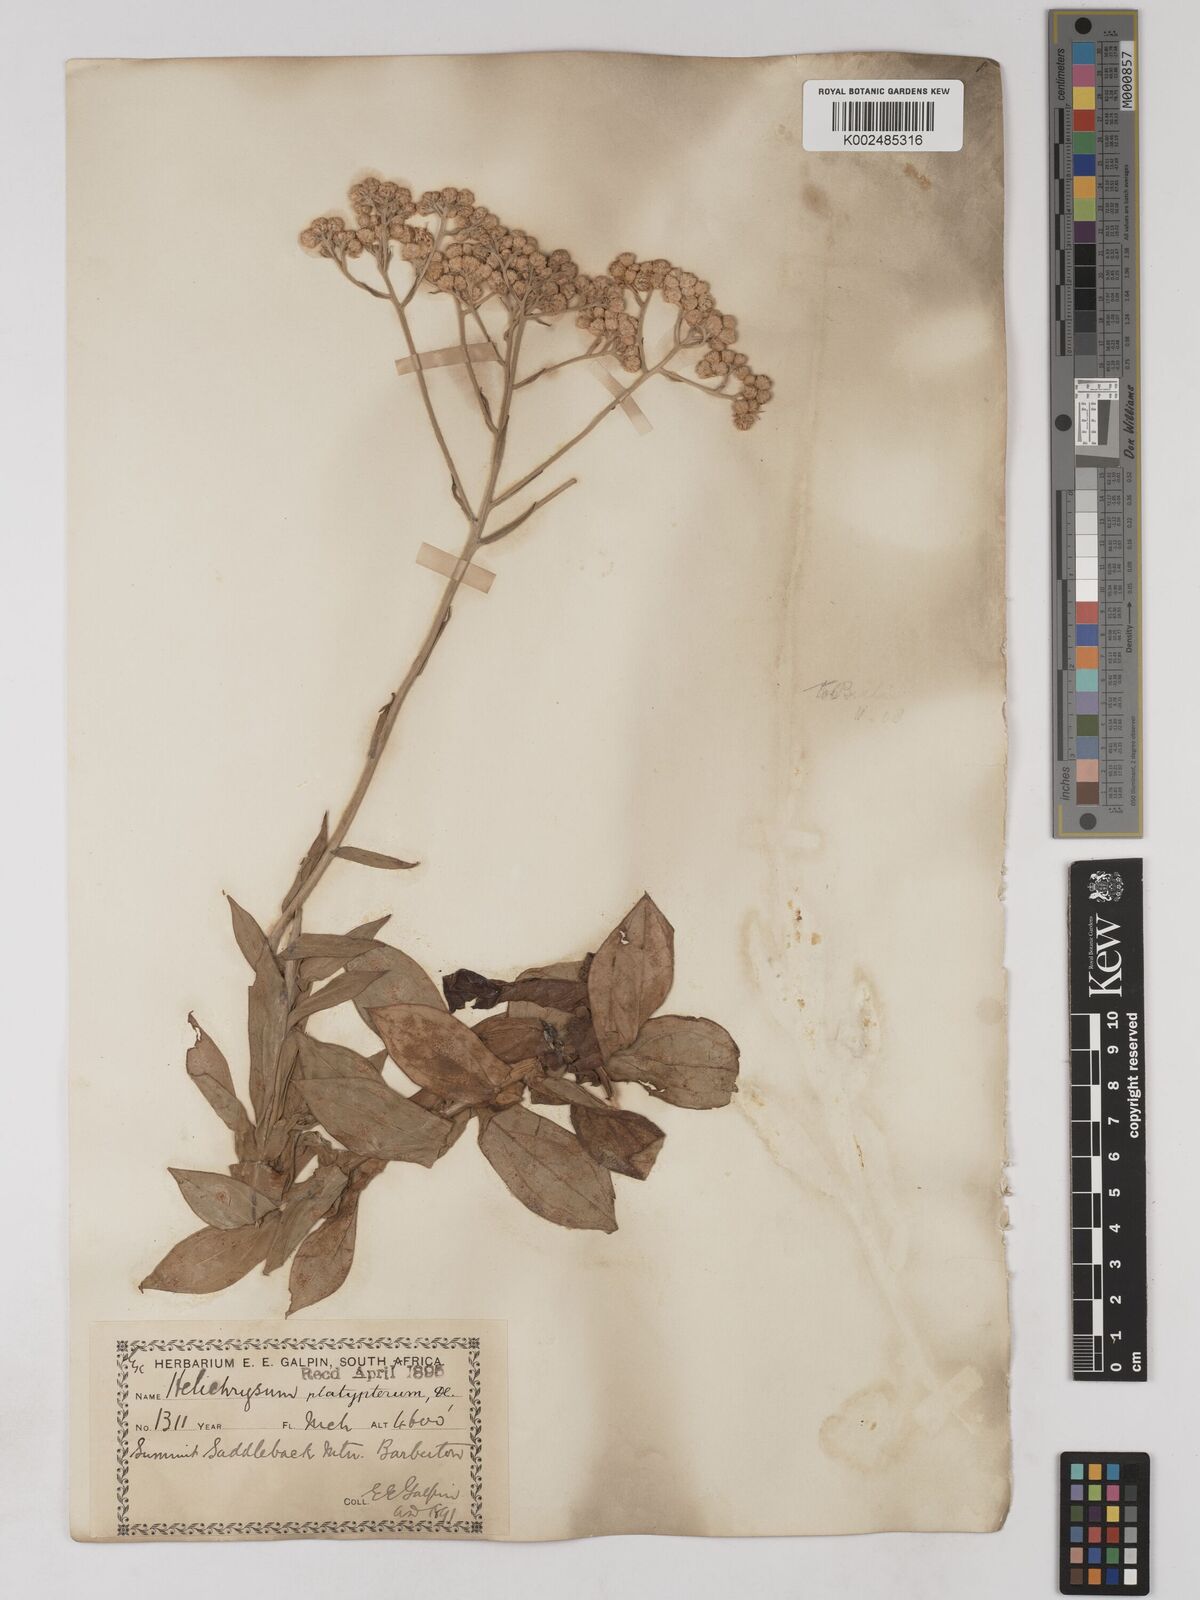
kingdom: Plantae
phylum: Tracheophyta
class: Magnoliopsida
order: Asterales
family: Asteraceae
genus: Helichrysum
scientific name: Helichrysum platypterum
